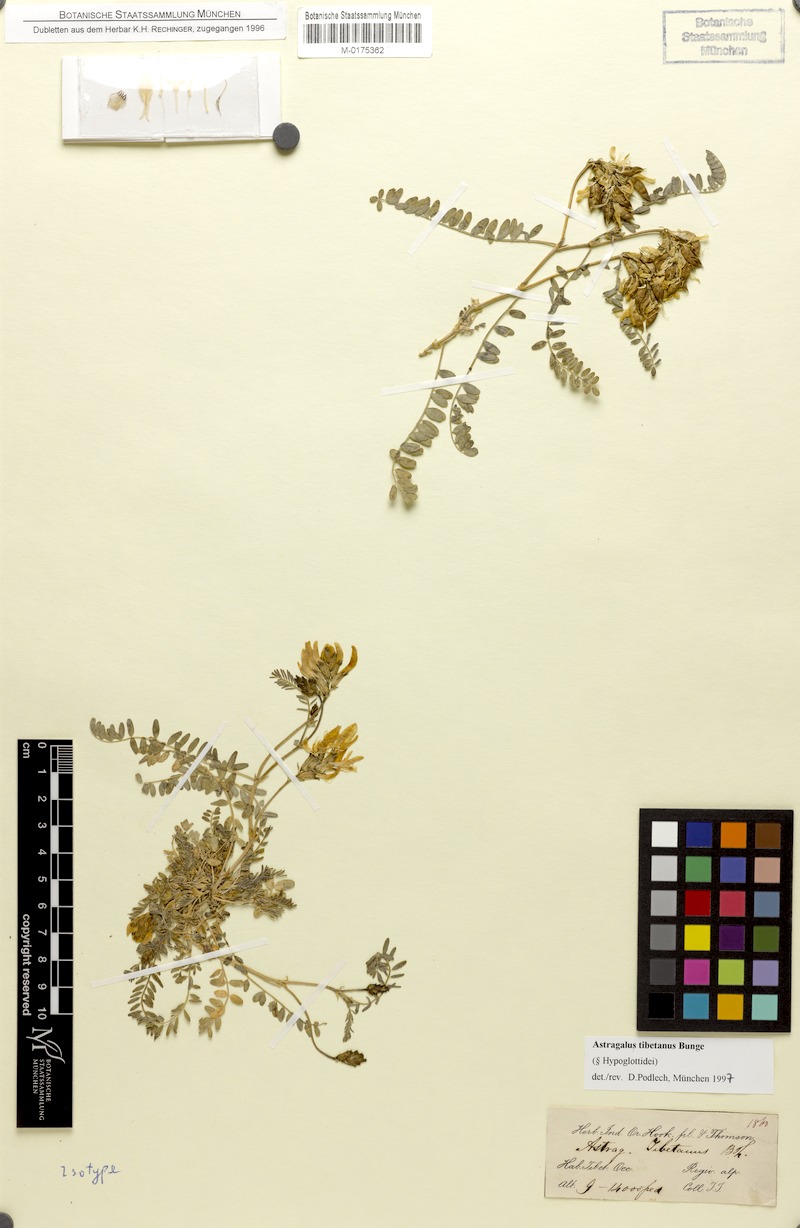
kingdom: Plantae
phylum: Tracheophyta
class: Magnoliopsida
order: Fabales
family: Fabaceae
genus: Astragalus
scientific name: Astragalus tibetanus
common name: Tibet milkvetch
